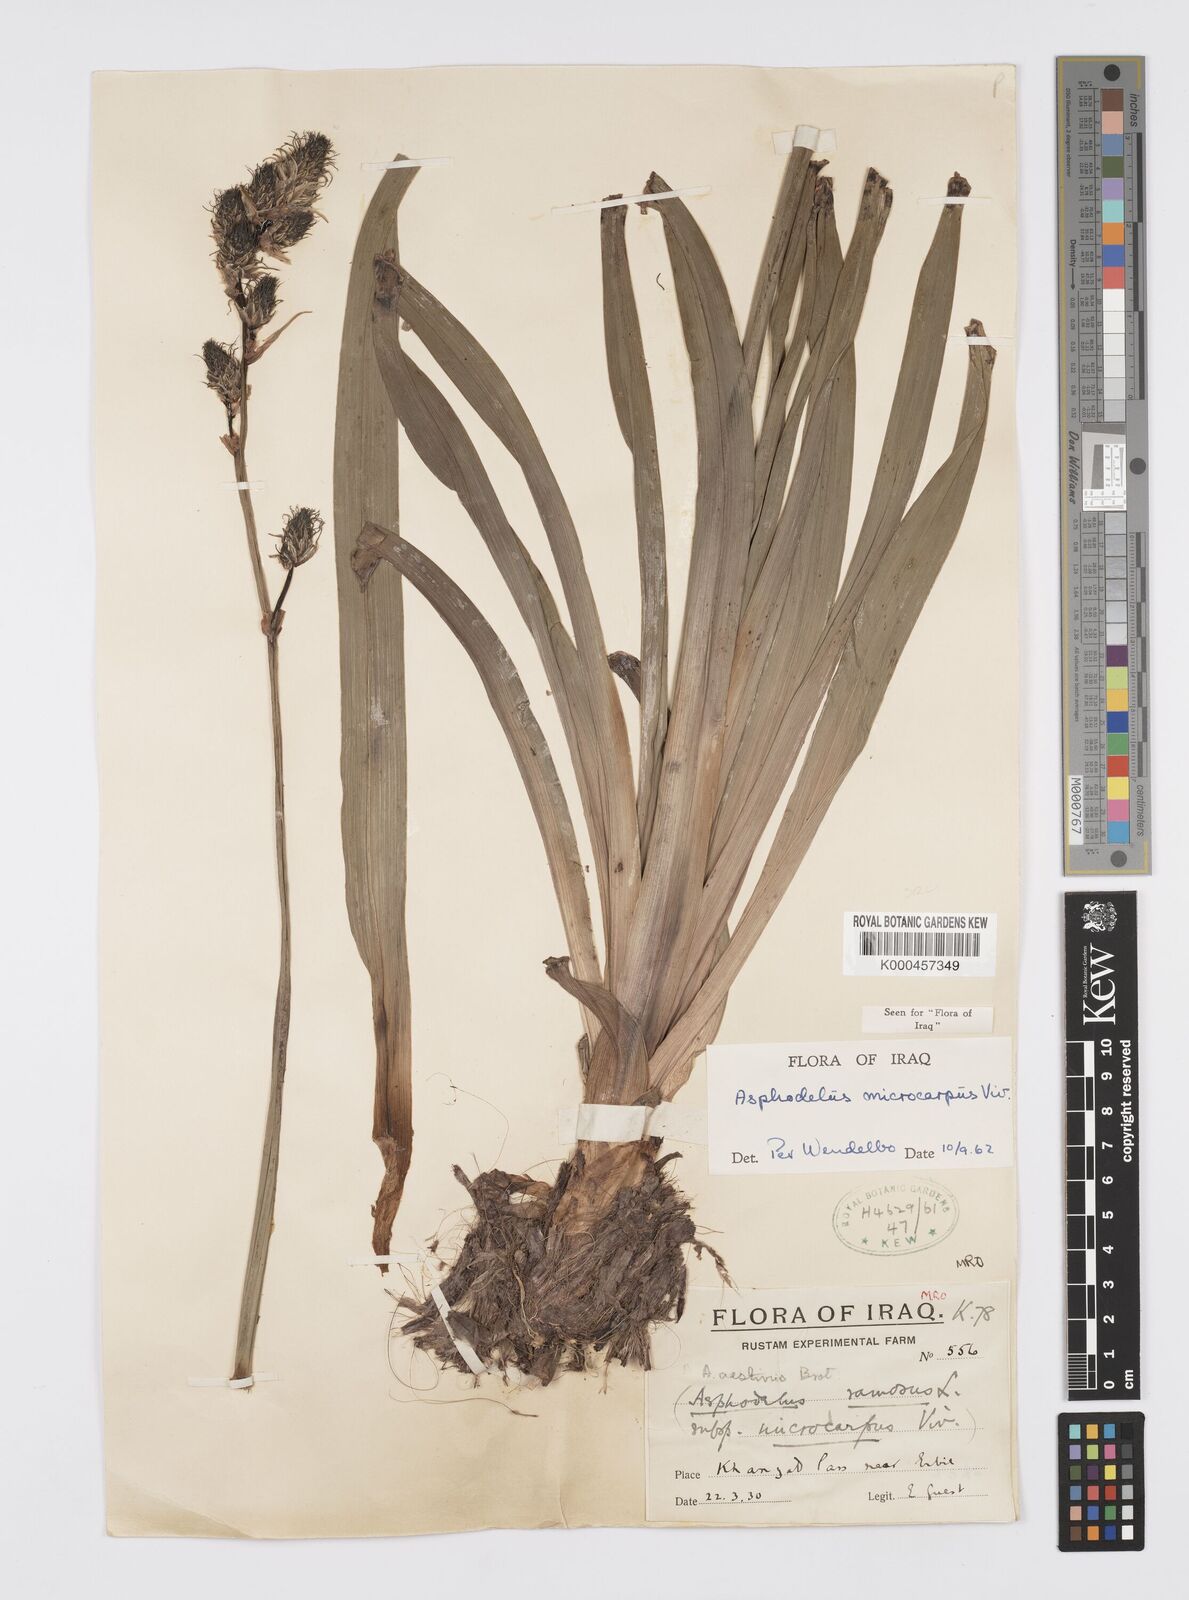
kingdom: Plantae
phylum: Tracheophyta
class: Liliopsida
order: Asparagales
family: Asphodelaceae
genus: Asphodelus
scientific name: Asphodelus ramosus
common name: Silverrod
